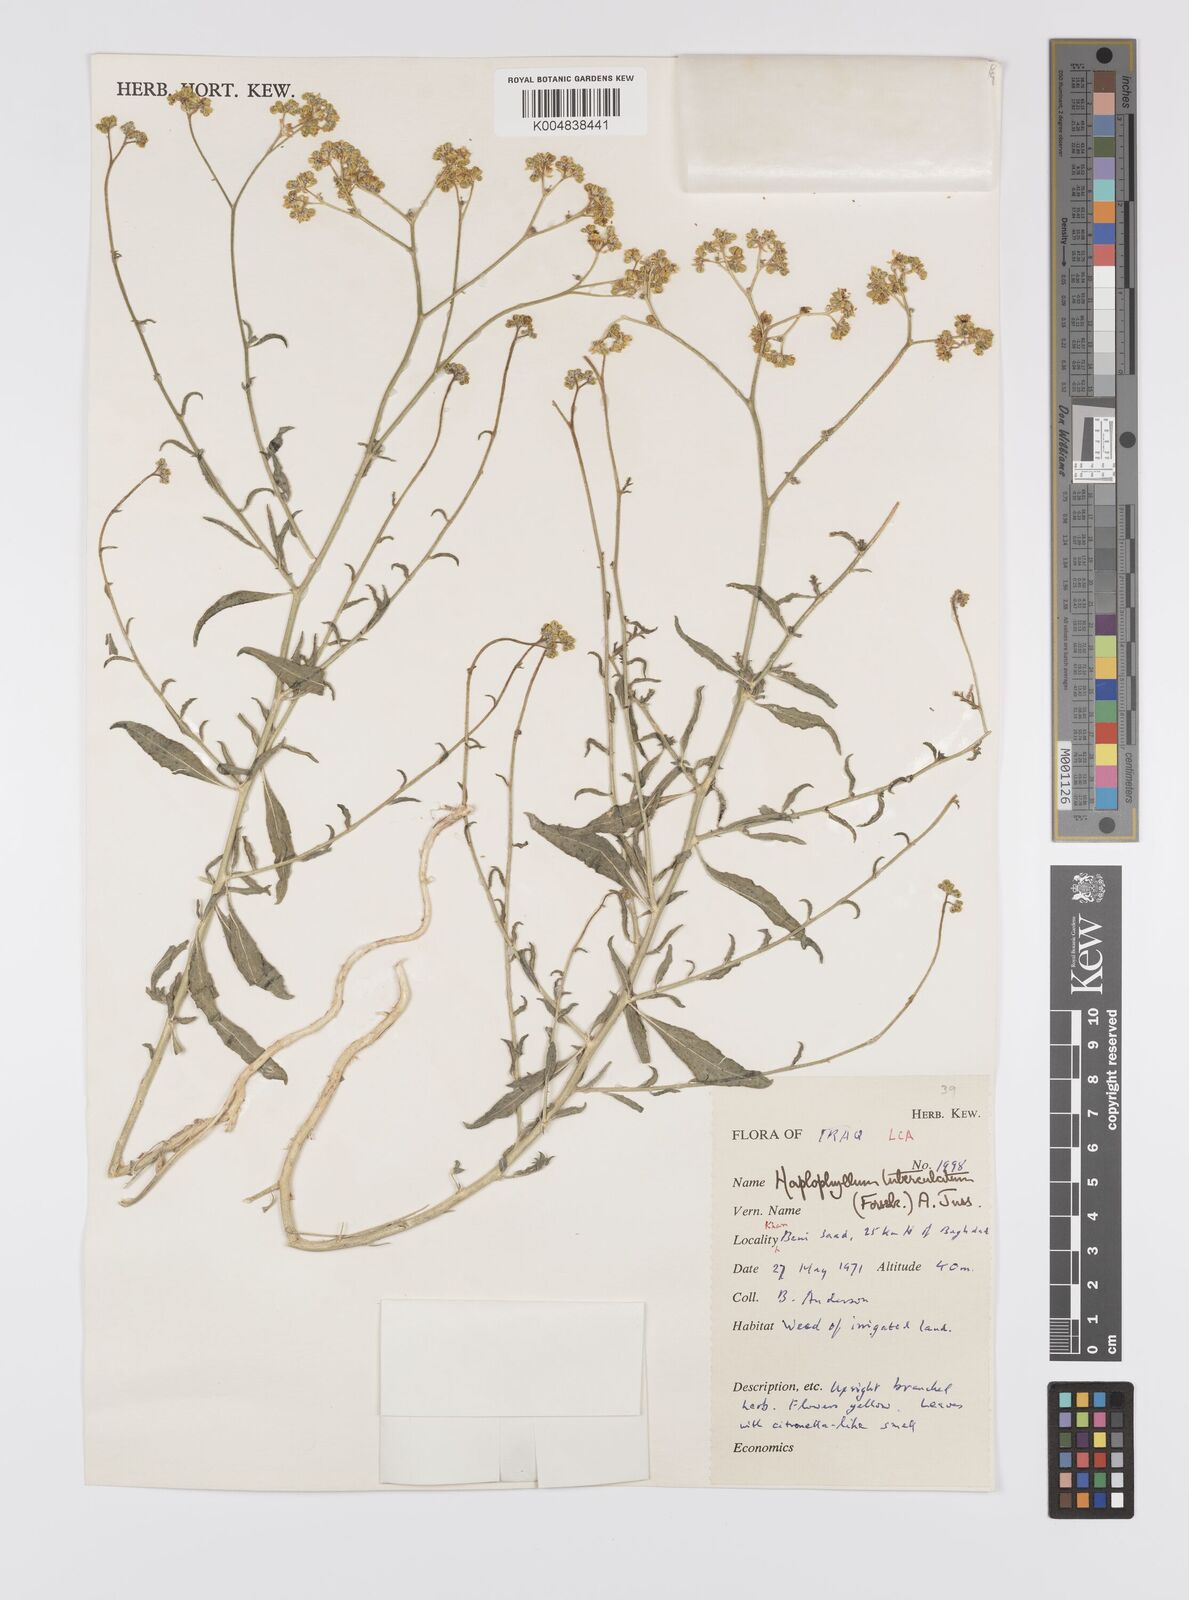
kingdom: Plantae
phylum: Tracheophyta
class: Magnoliopsida
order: Sapindales
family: Rutaceae
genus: Haplophyllum
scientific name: Haplophyllum tuberculatum
